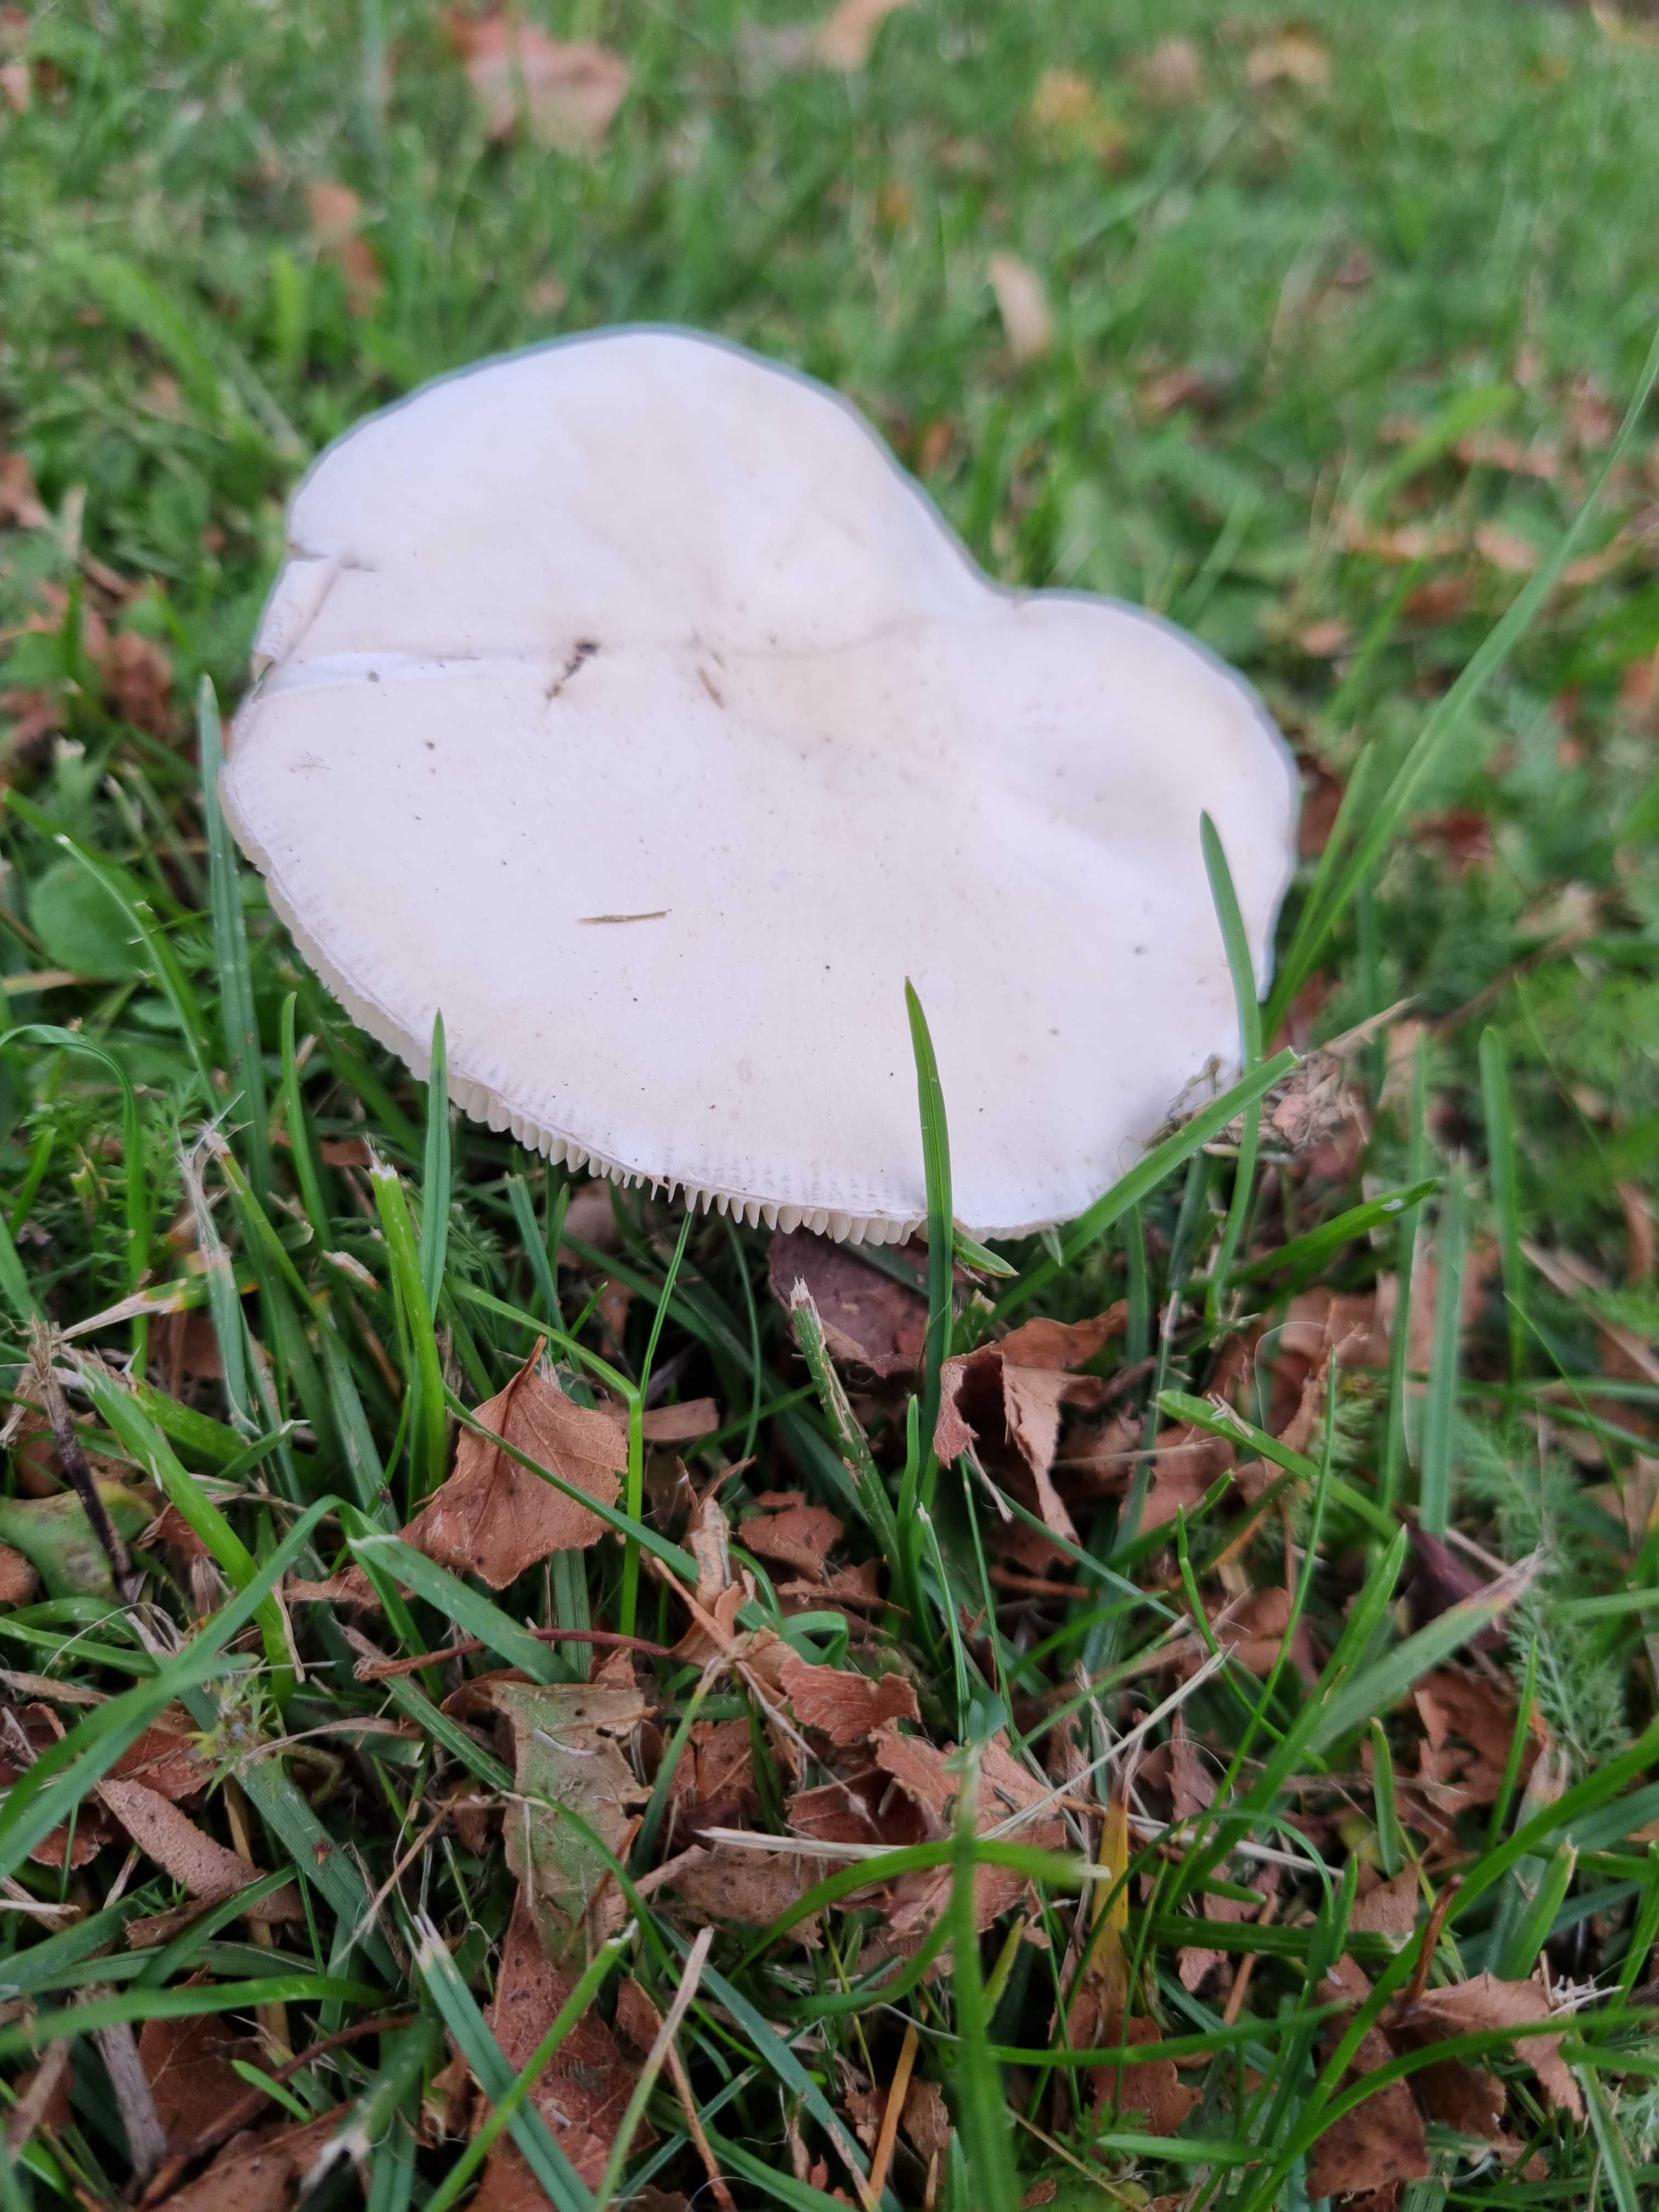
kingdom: Fungi
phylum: Basidiomycota
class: Agaricomycetes
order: Agaricales
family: Agaricaceae
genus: Leucoagaricus
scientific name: Leucoagaricus leucothites
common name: rosabladet silkehat
